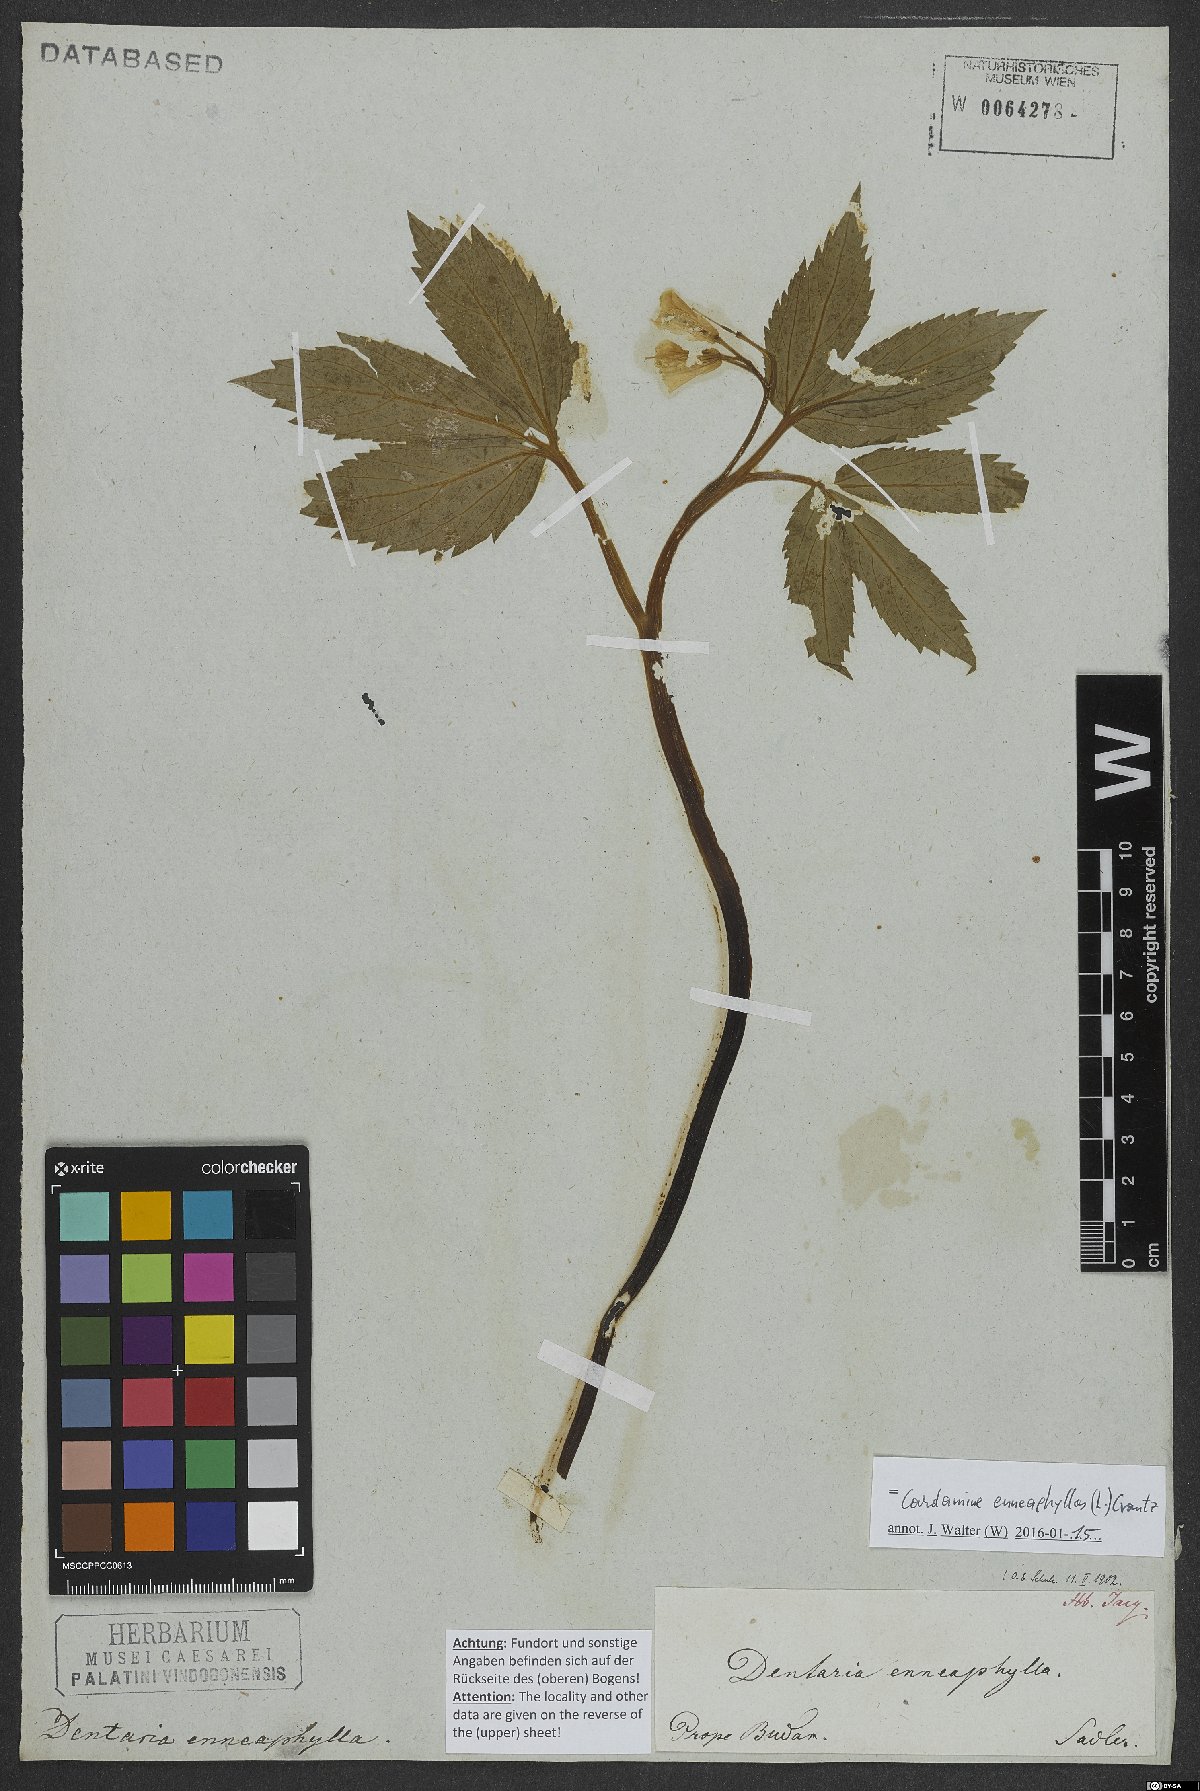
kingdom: Plantae
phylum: Tracheophyta
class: Magnoliopsida
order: Brassicales
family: Brassicaceae
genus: Cardamine
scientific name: Cardamine enneaphyllos
